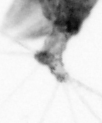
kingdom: Animalia
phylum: Arthropoda
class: Copepoda
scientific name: Copepoda
